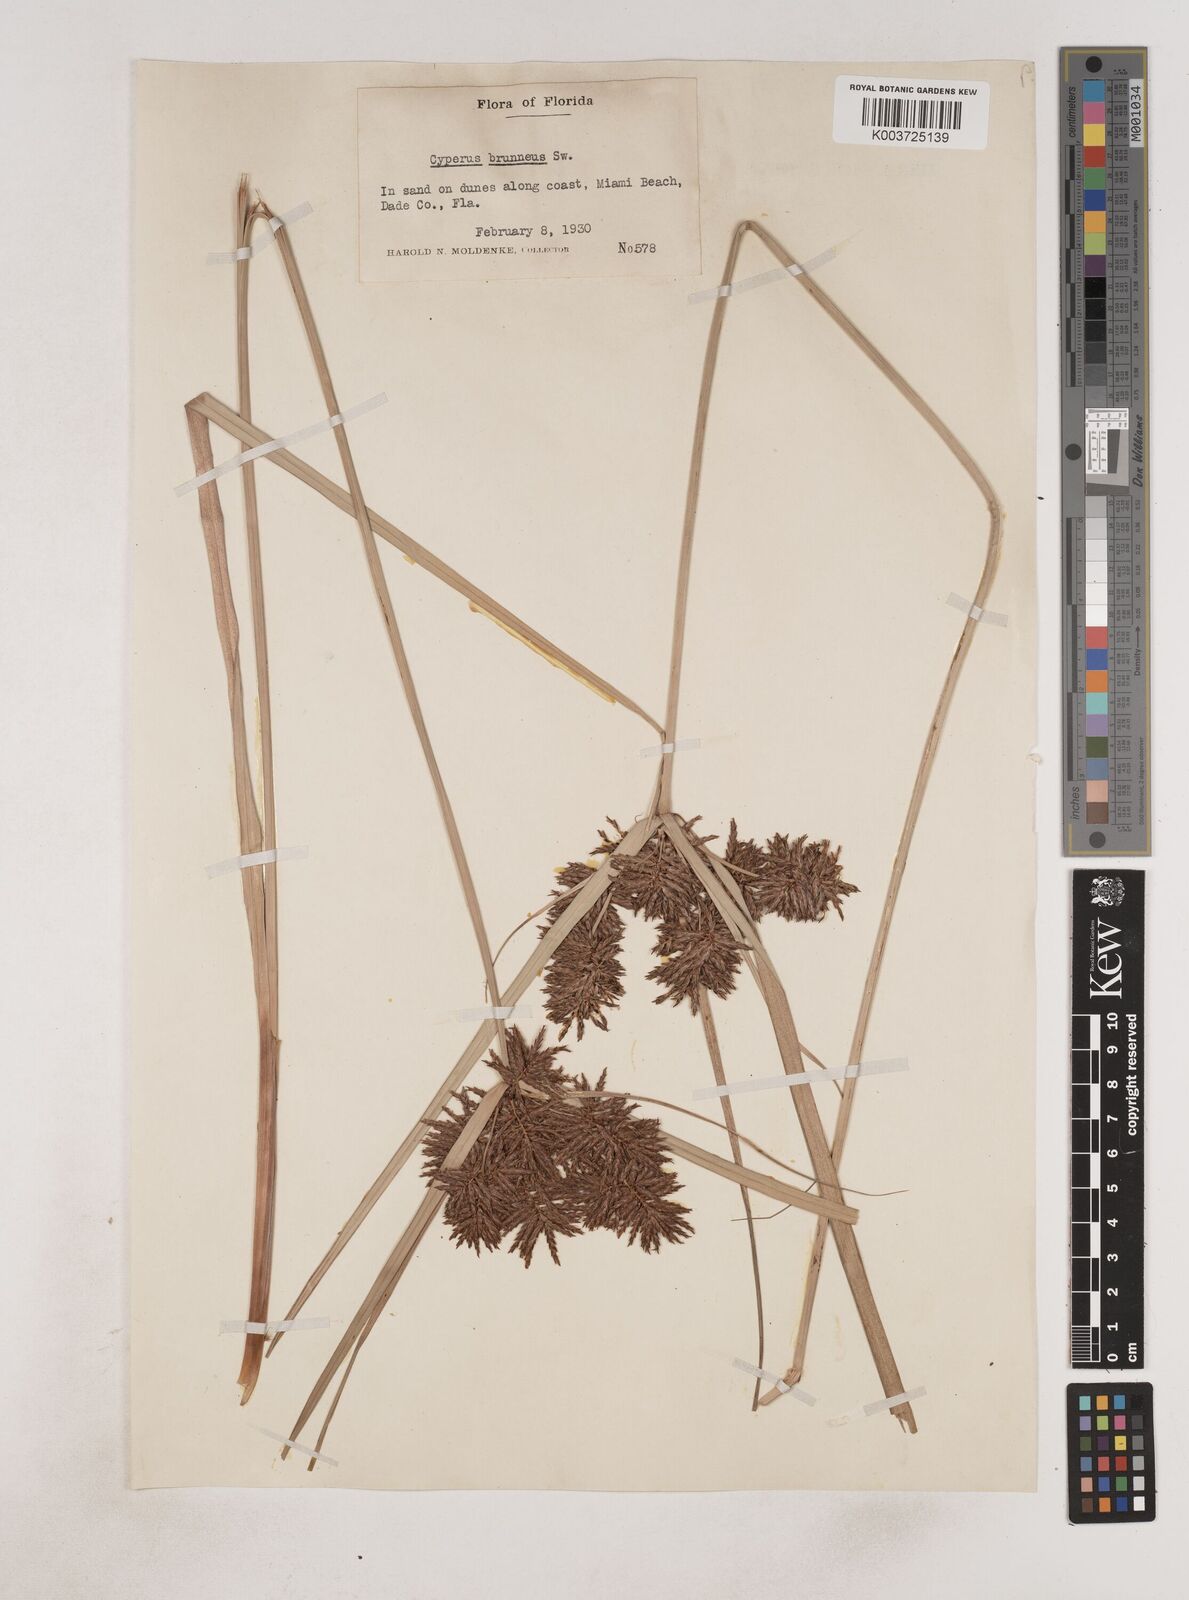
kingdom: Plantae
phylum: Tracheophyta
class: Liliopsida
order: Poales
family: Cyperaceae
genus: Cyperus
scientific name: Cyperus brunneus
